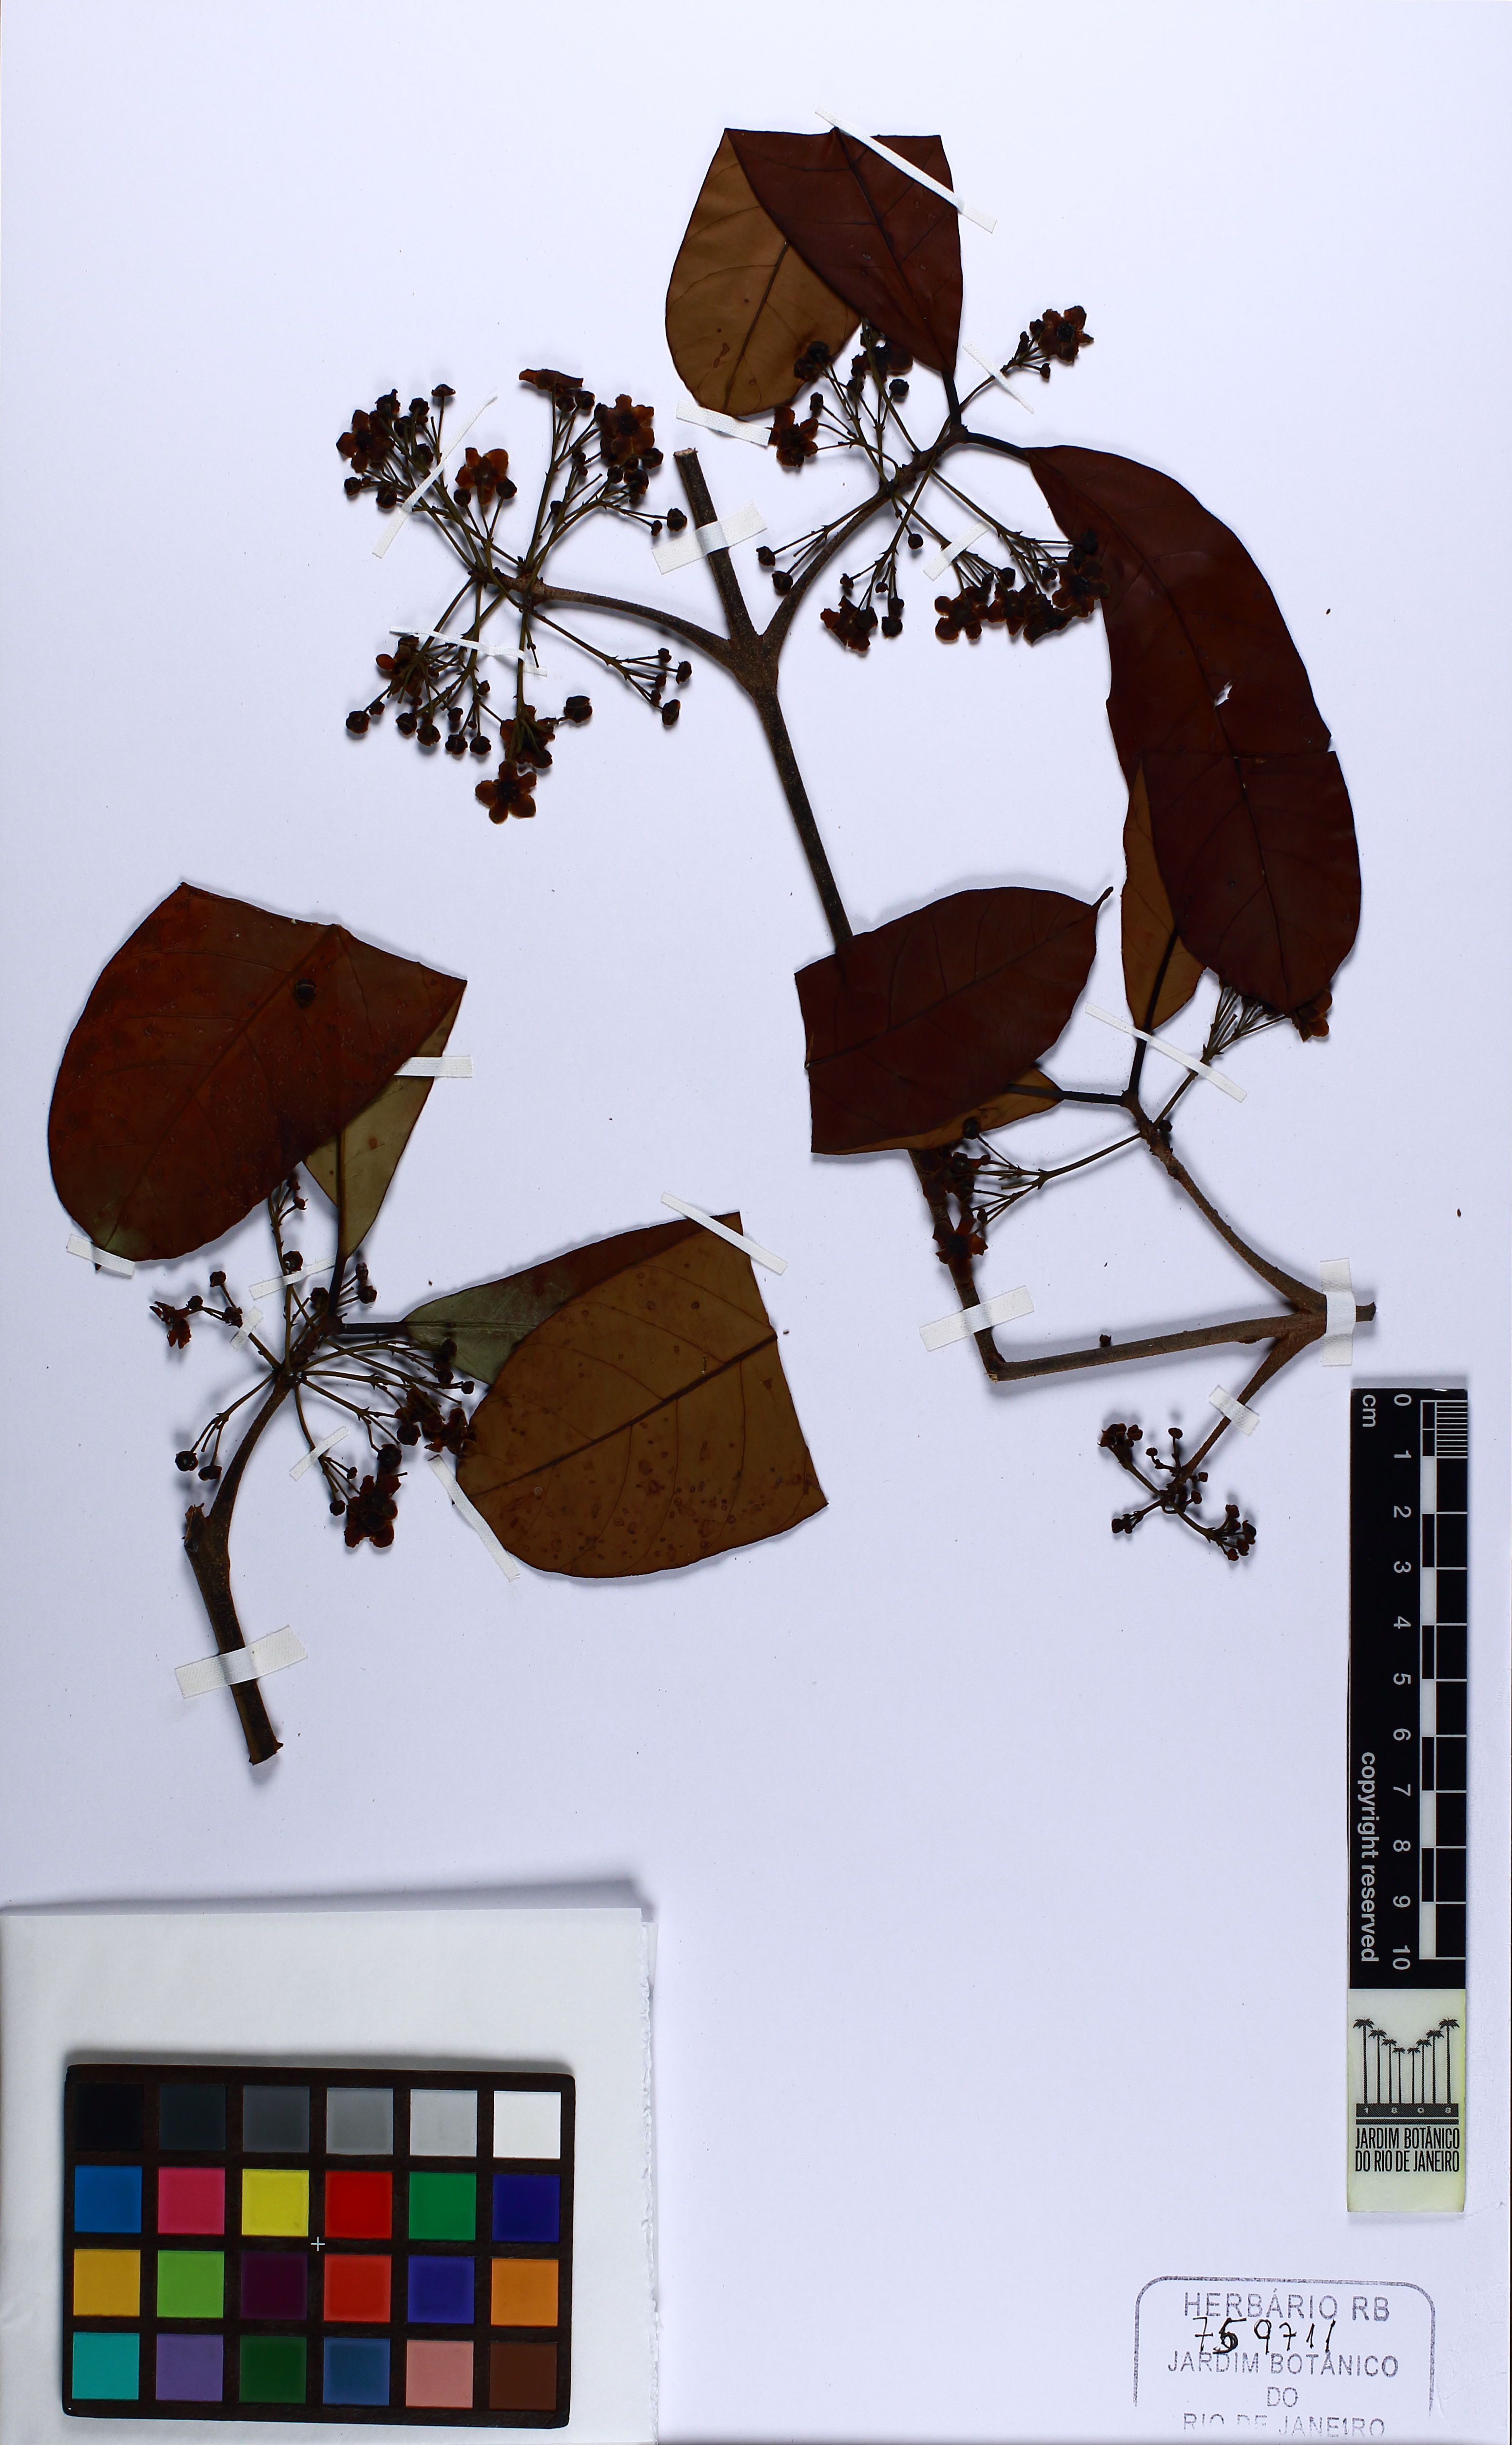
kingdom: Plantae
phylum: Tracheophyta
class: Magnoliopsida
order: Celastrales
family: Celastraceae
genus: Salacia
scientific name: Salacia miqueliana
